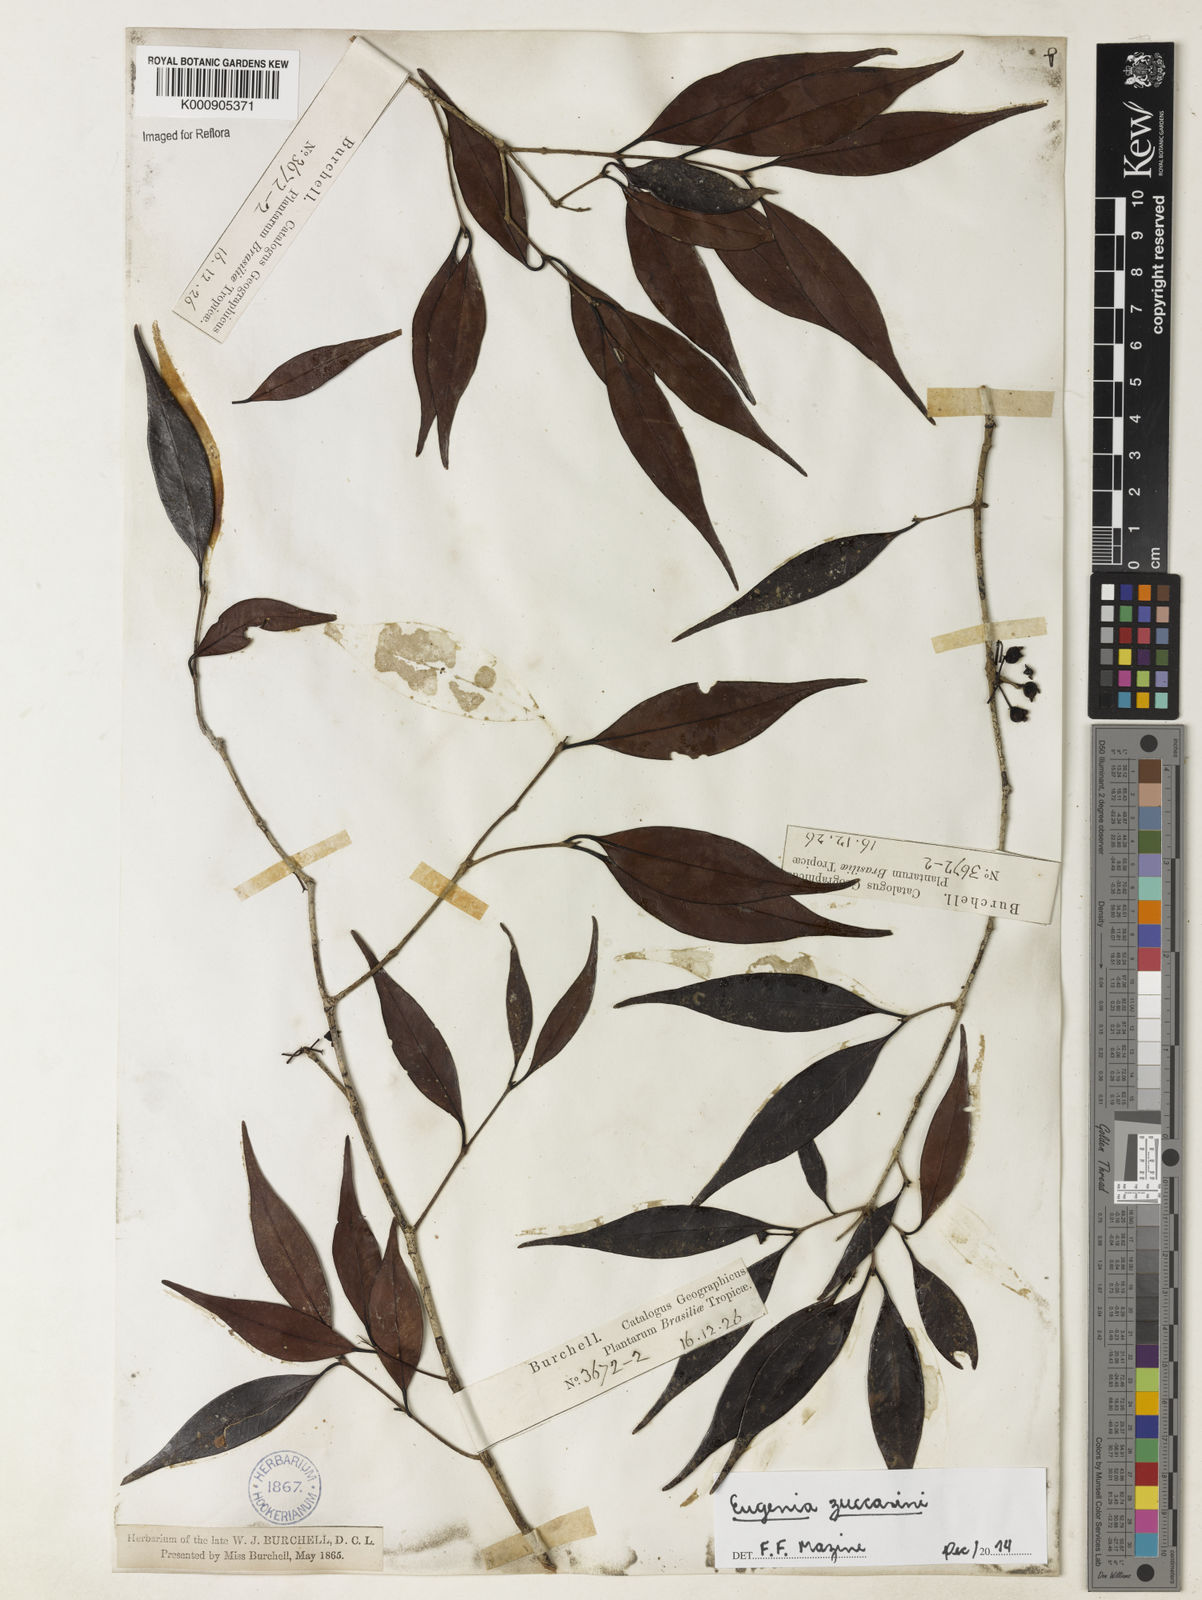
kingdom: Plantae
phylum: Tracheophyta
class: Magnoliopsida
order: Myrtales
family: Myrtaceae
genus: Eugenia
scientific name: Eugenia zuccarinii
